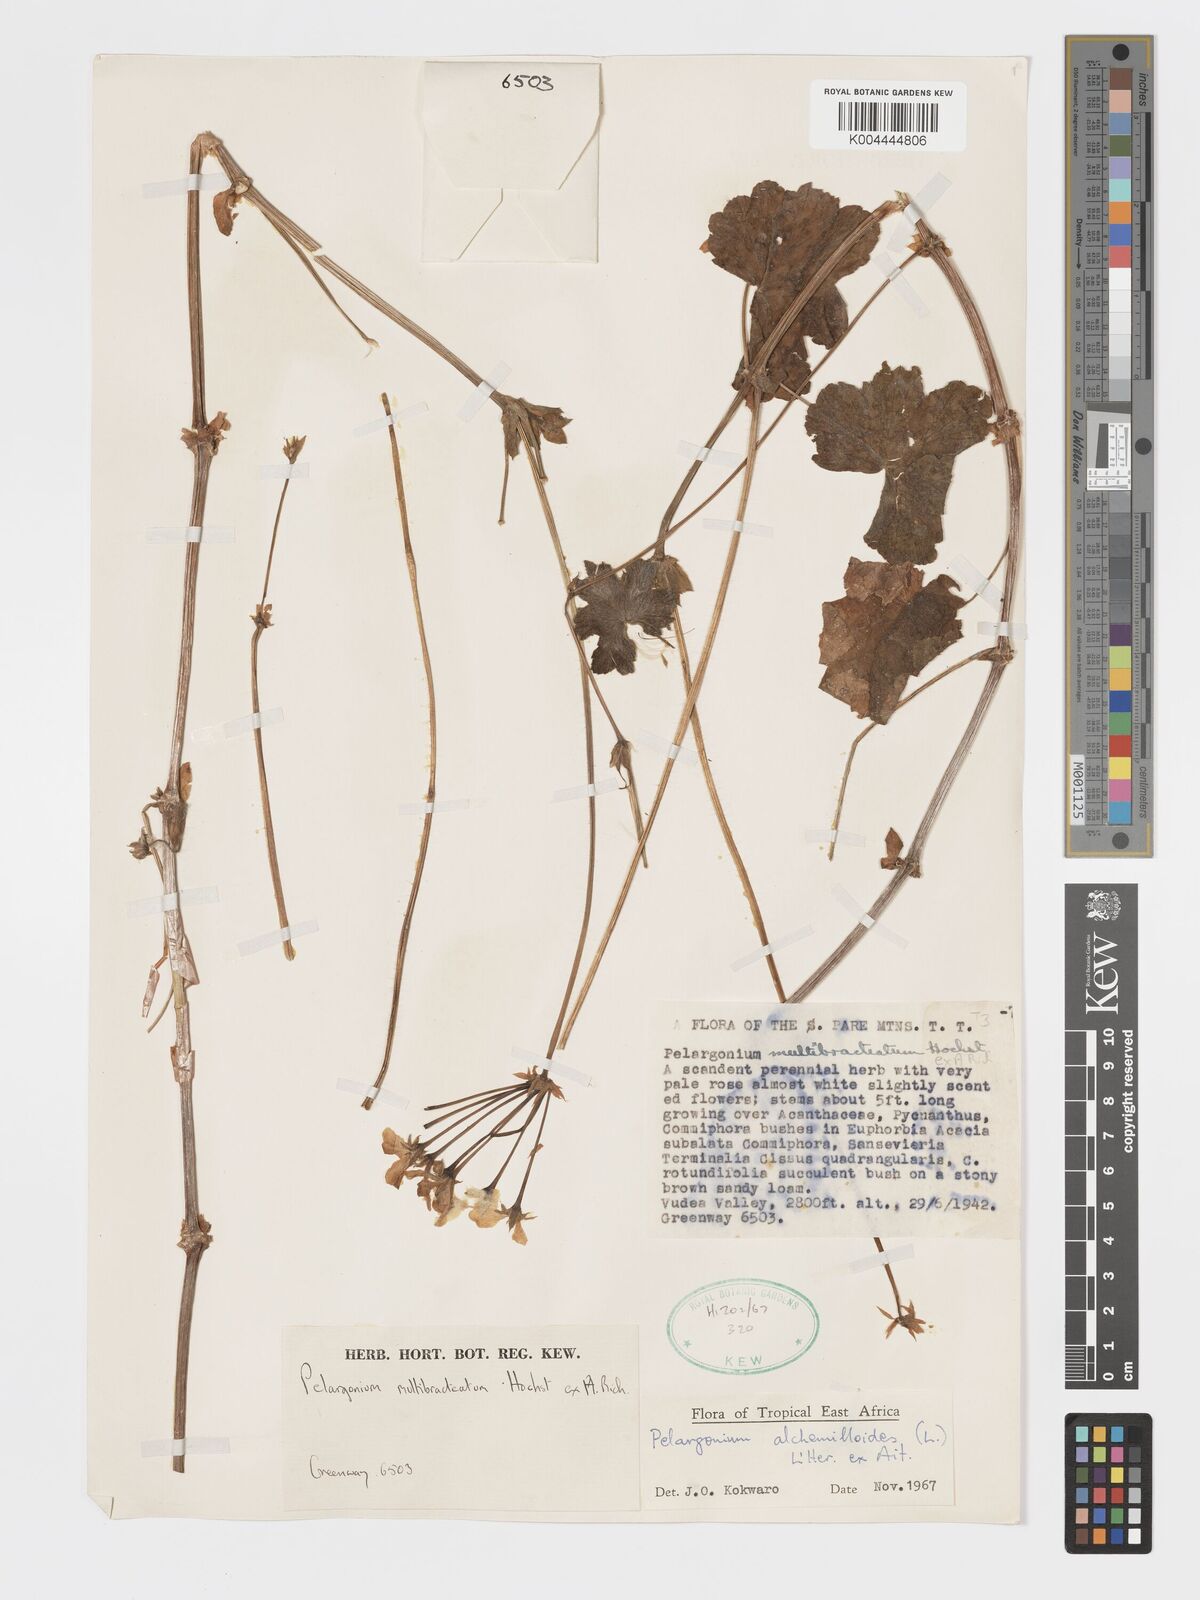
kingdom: Plantae
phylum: Tracheophyta
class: Magnoliopsida
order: Geraniales
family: Geraniaceae
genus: Pelargonium
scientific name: Pelargonium alchemilloides
